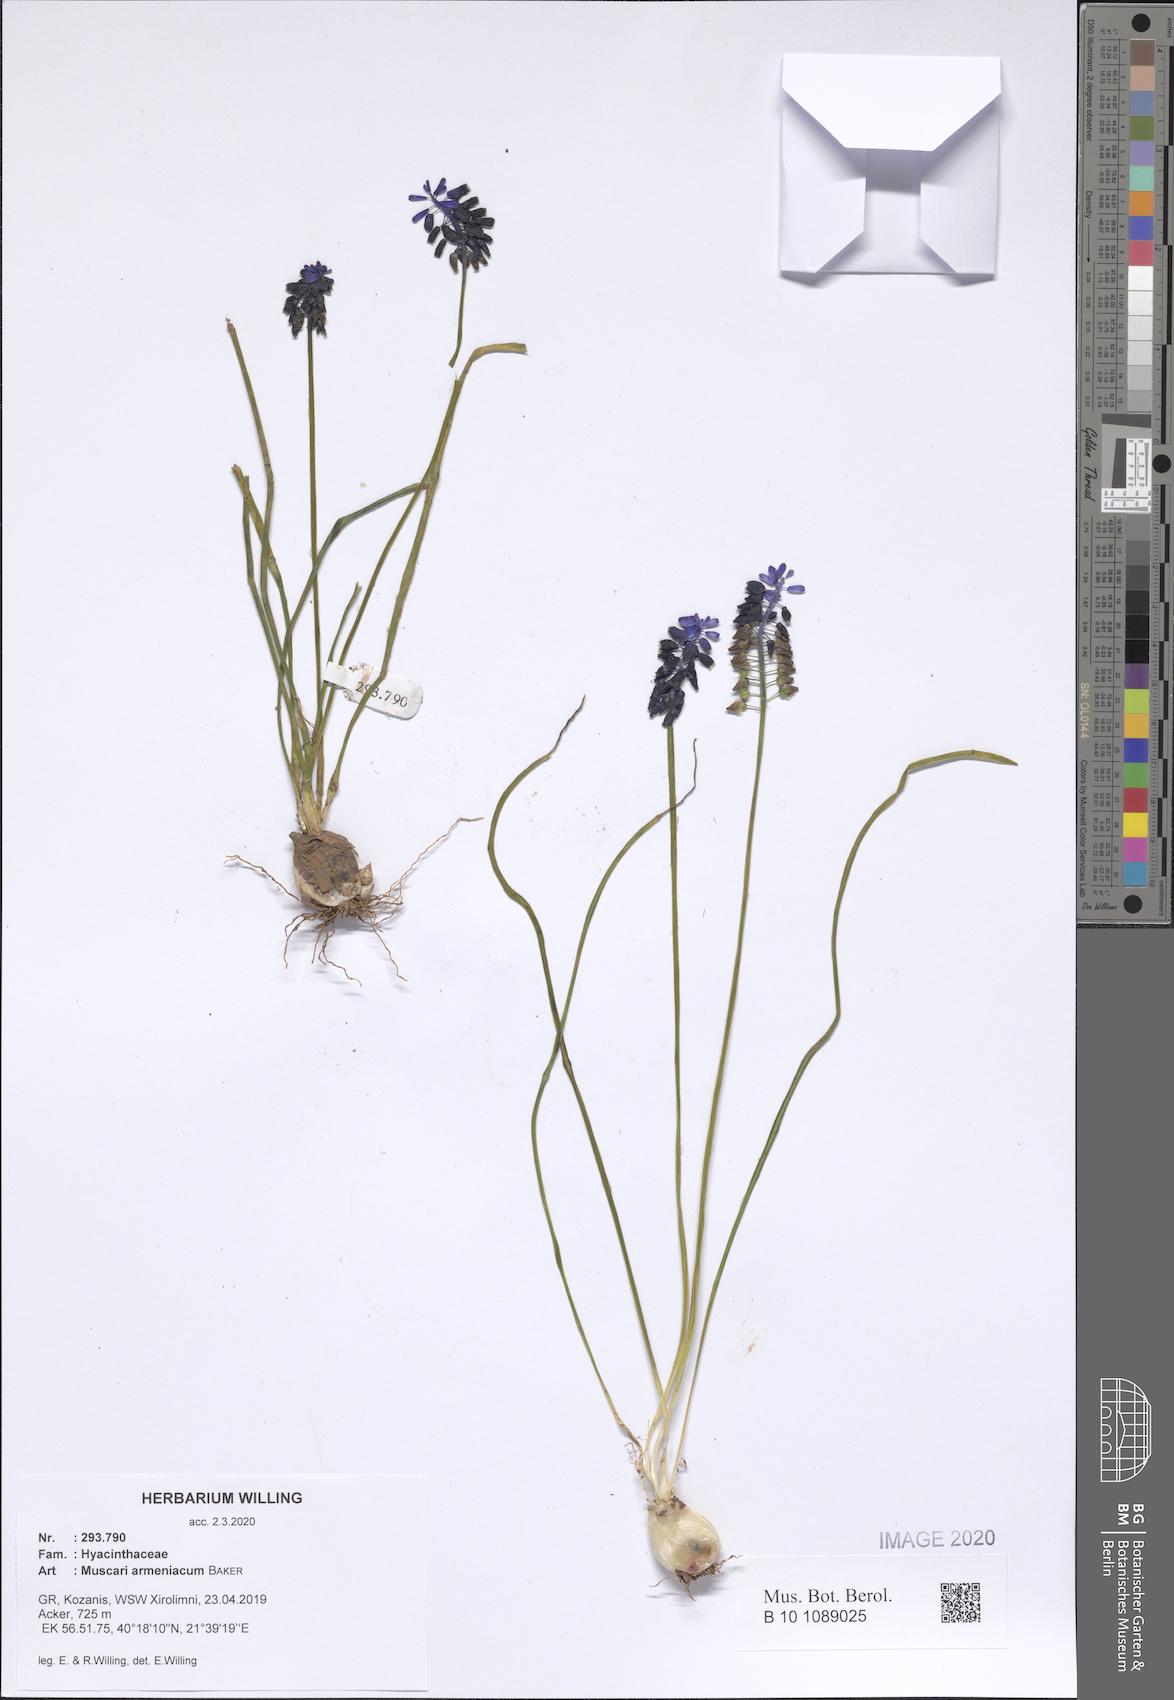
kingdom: Plantae
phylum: Tracheophyta
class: Liliopsida
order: Asparagales
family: Asparagaceae
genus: Muscari
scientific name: Muscari armeniacum
